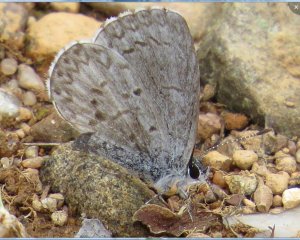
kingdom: Animalia
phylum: Arthropoda
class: Insecta
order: Lepidoptera
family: Lycaenidae
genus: Celastrina
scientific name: Celastrina serotina
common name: Cherry Gall Azure
